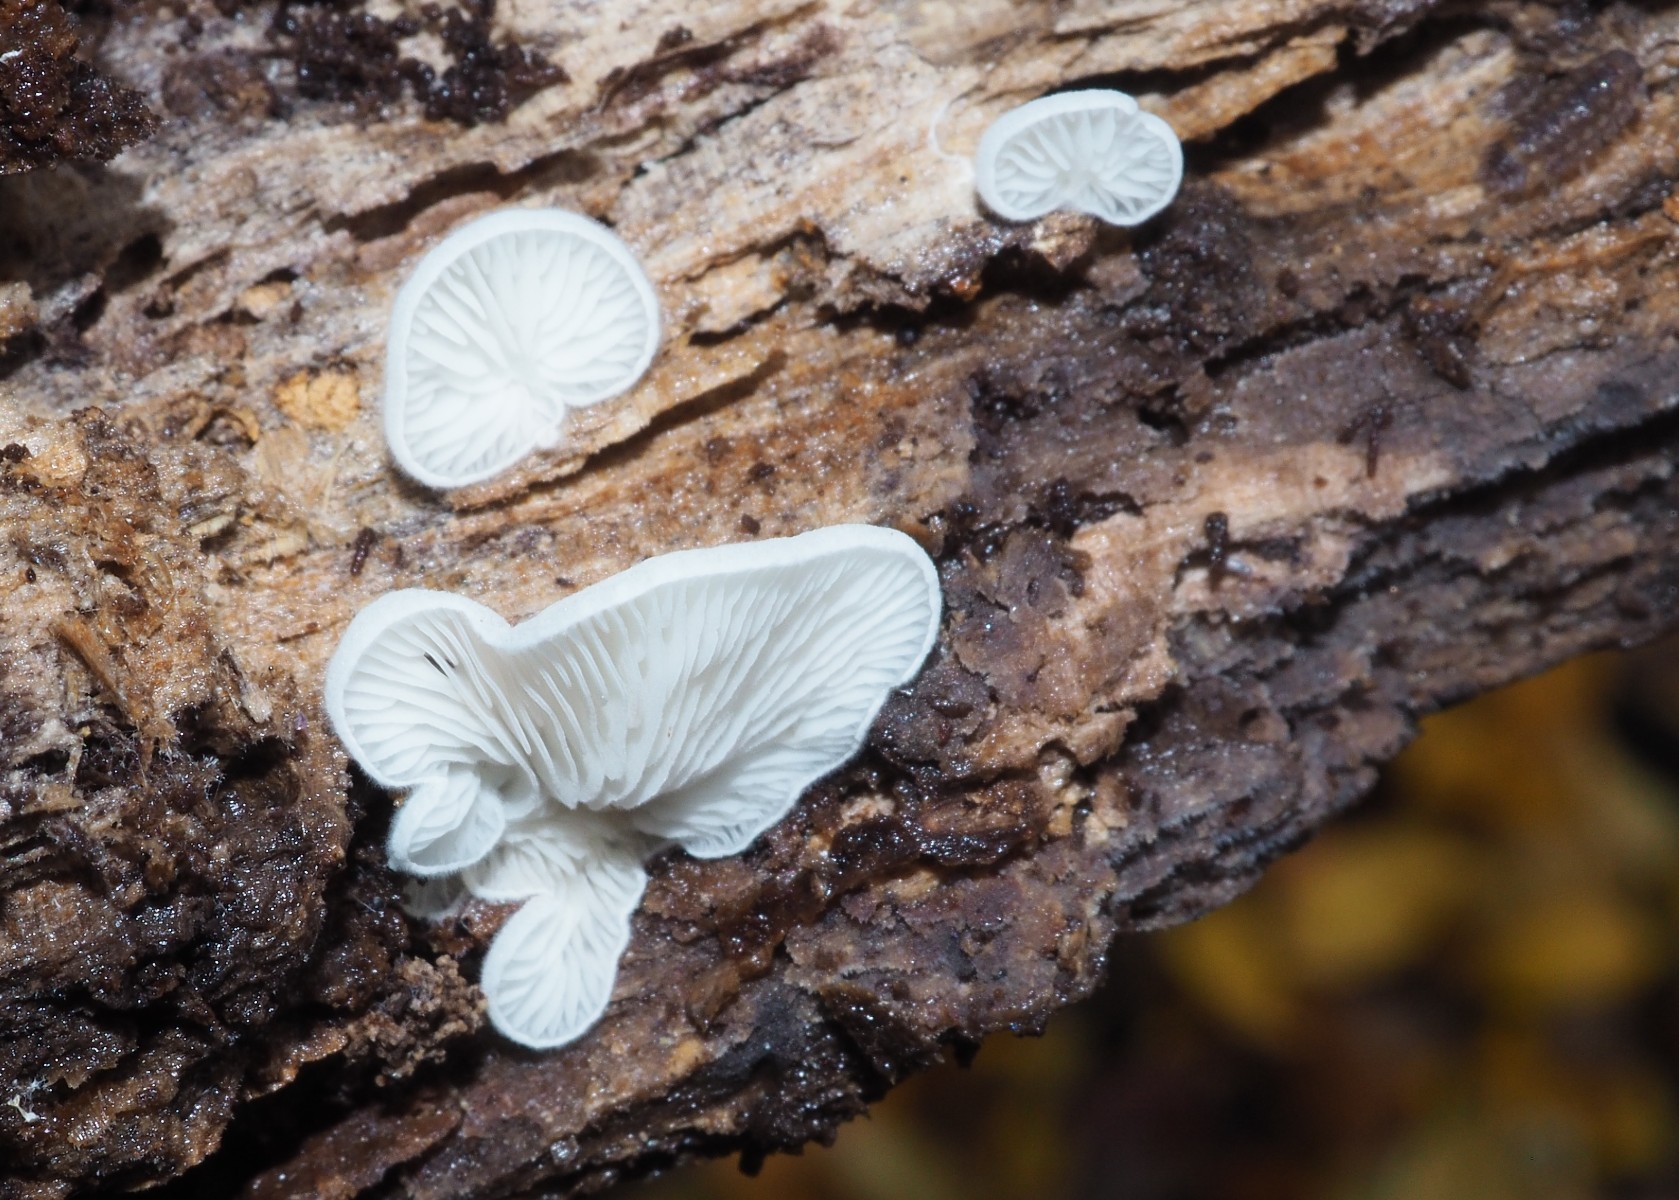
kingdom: Fungi
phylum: Basidiomycota
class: Agaricomycetes
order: Agaricales
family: Entolomataceae
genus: Clitopilus
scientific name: Clitopilus hobsonii
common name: Miller's oysterling
